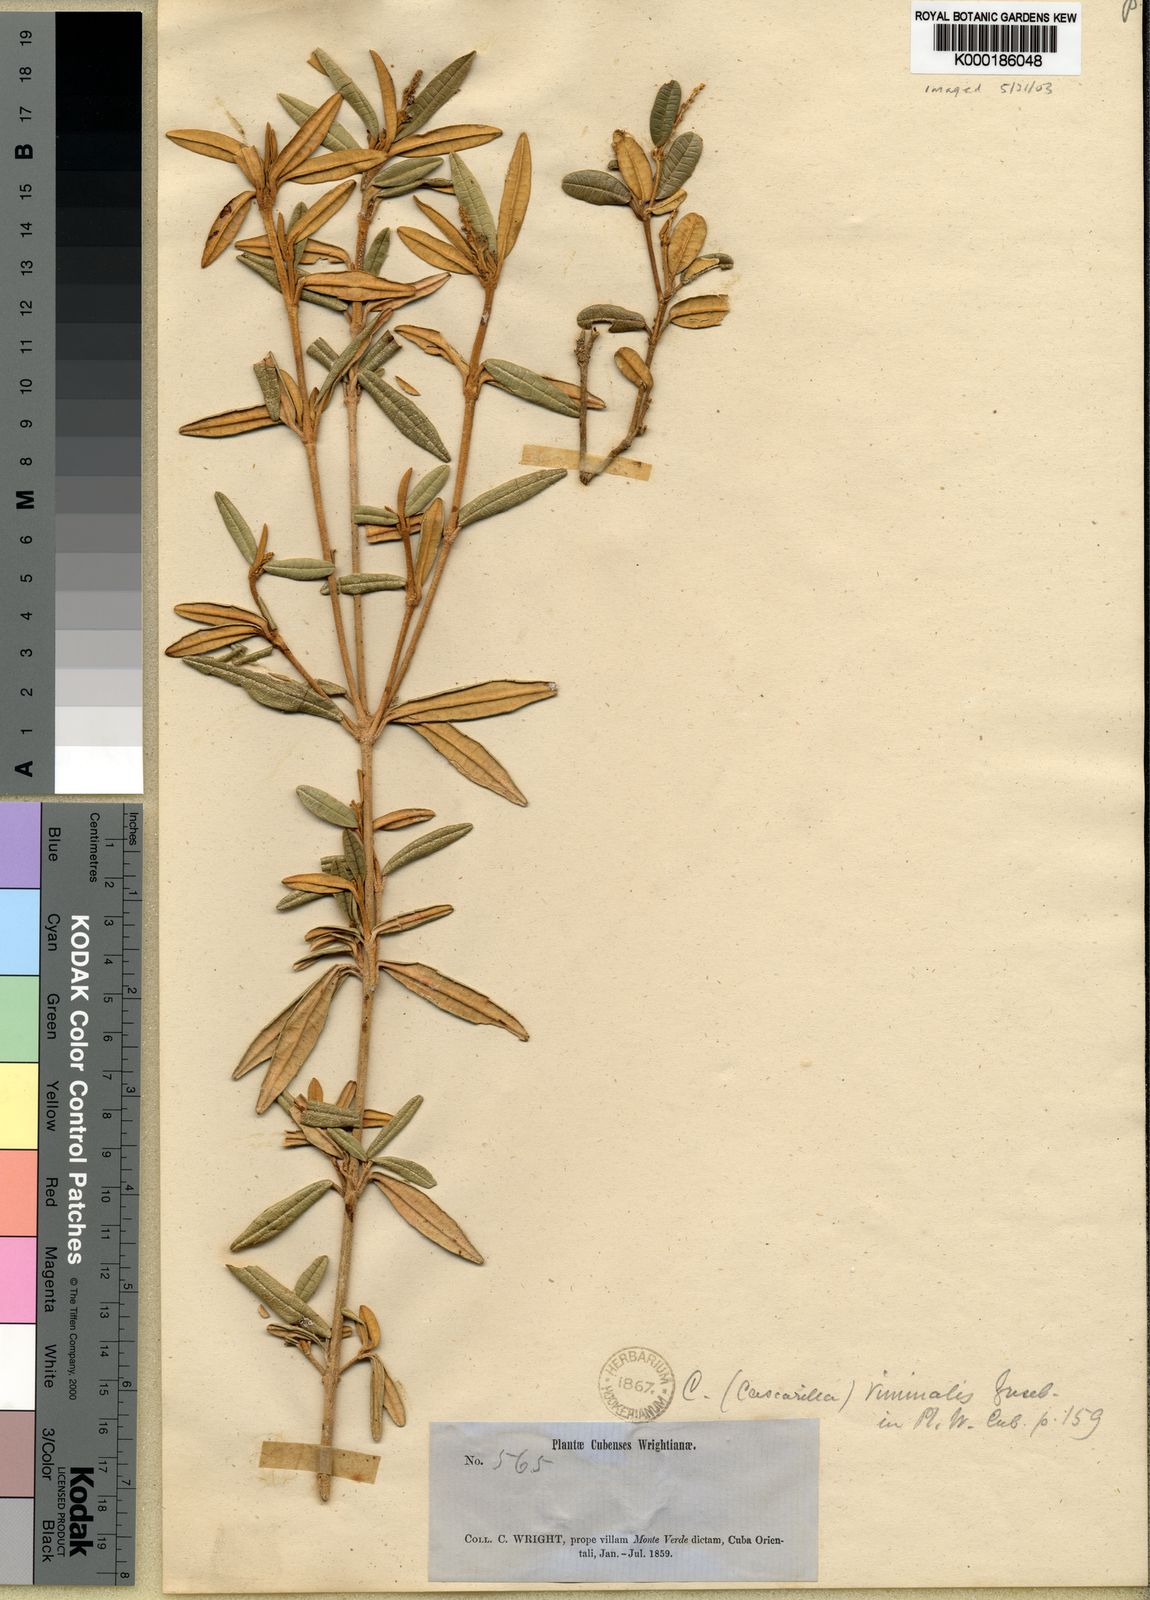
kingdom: Plantae
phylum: Tracheophyta
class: Magnoliopsida
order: Malpighiales
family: Euphorbiaceae
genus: Croton
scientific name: Croton viminalis
